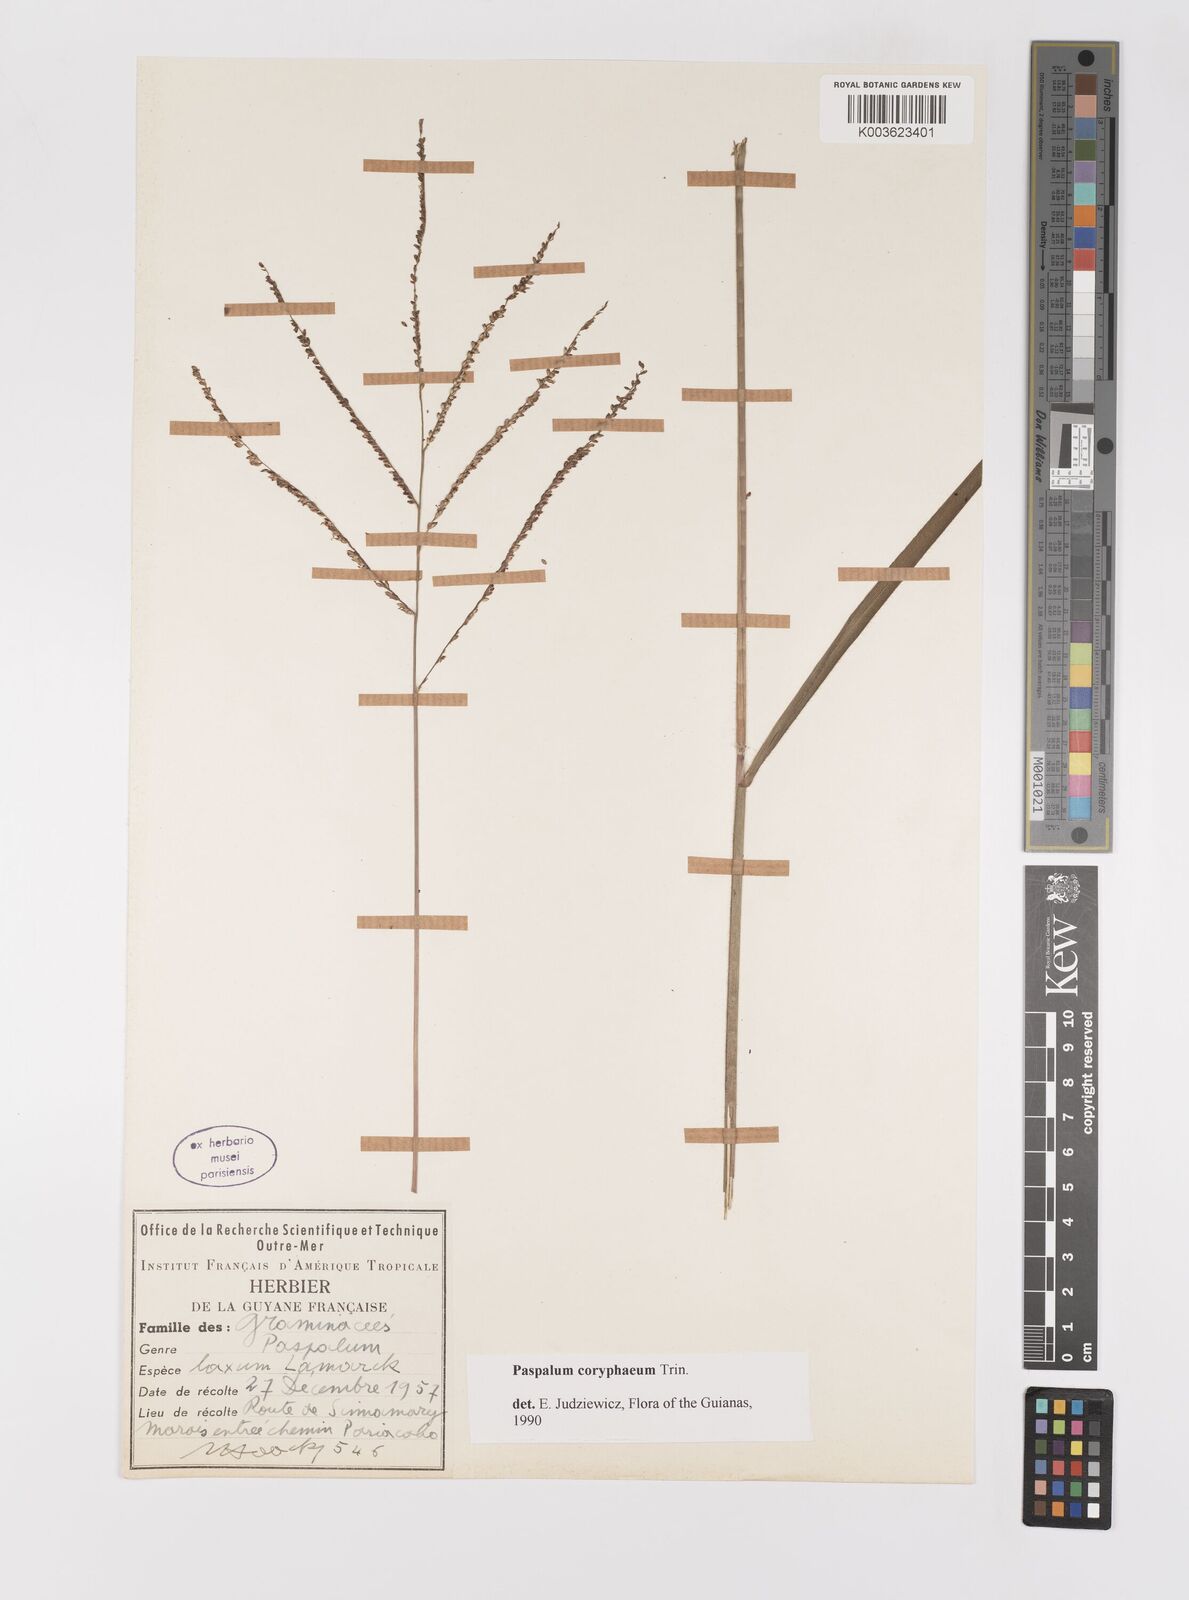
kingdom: Plantae
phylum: Tracheophyta
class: Liliopsida
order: Poales
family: Poaceae
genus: Paspalum
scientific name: Paspalum coryphaeum
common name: Emperor crowngrass
